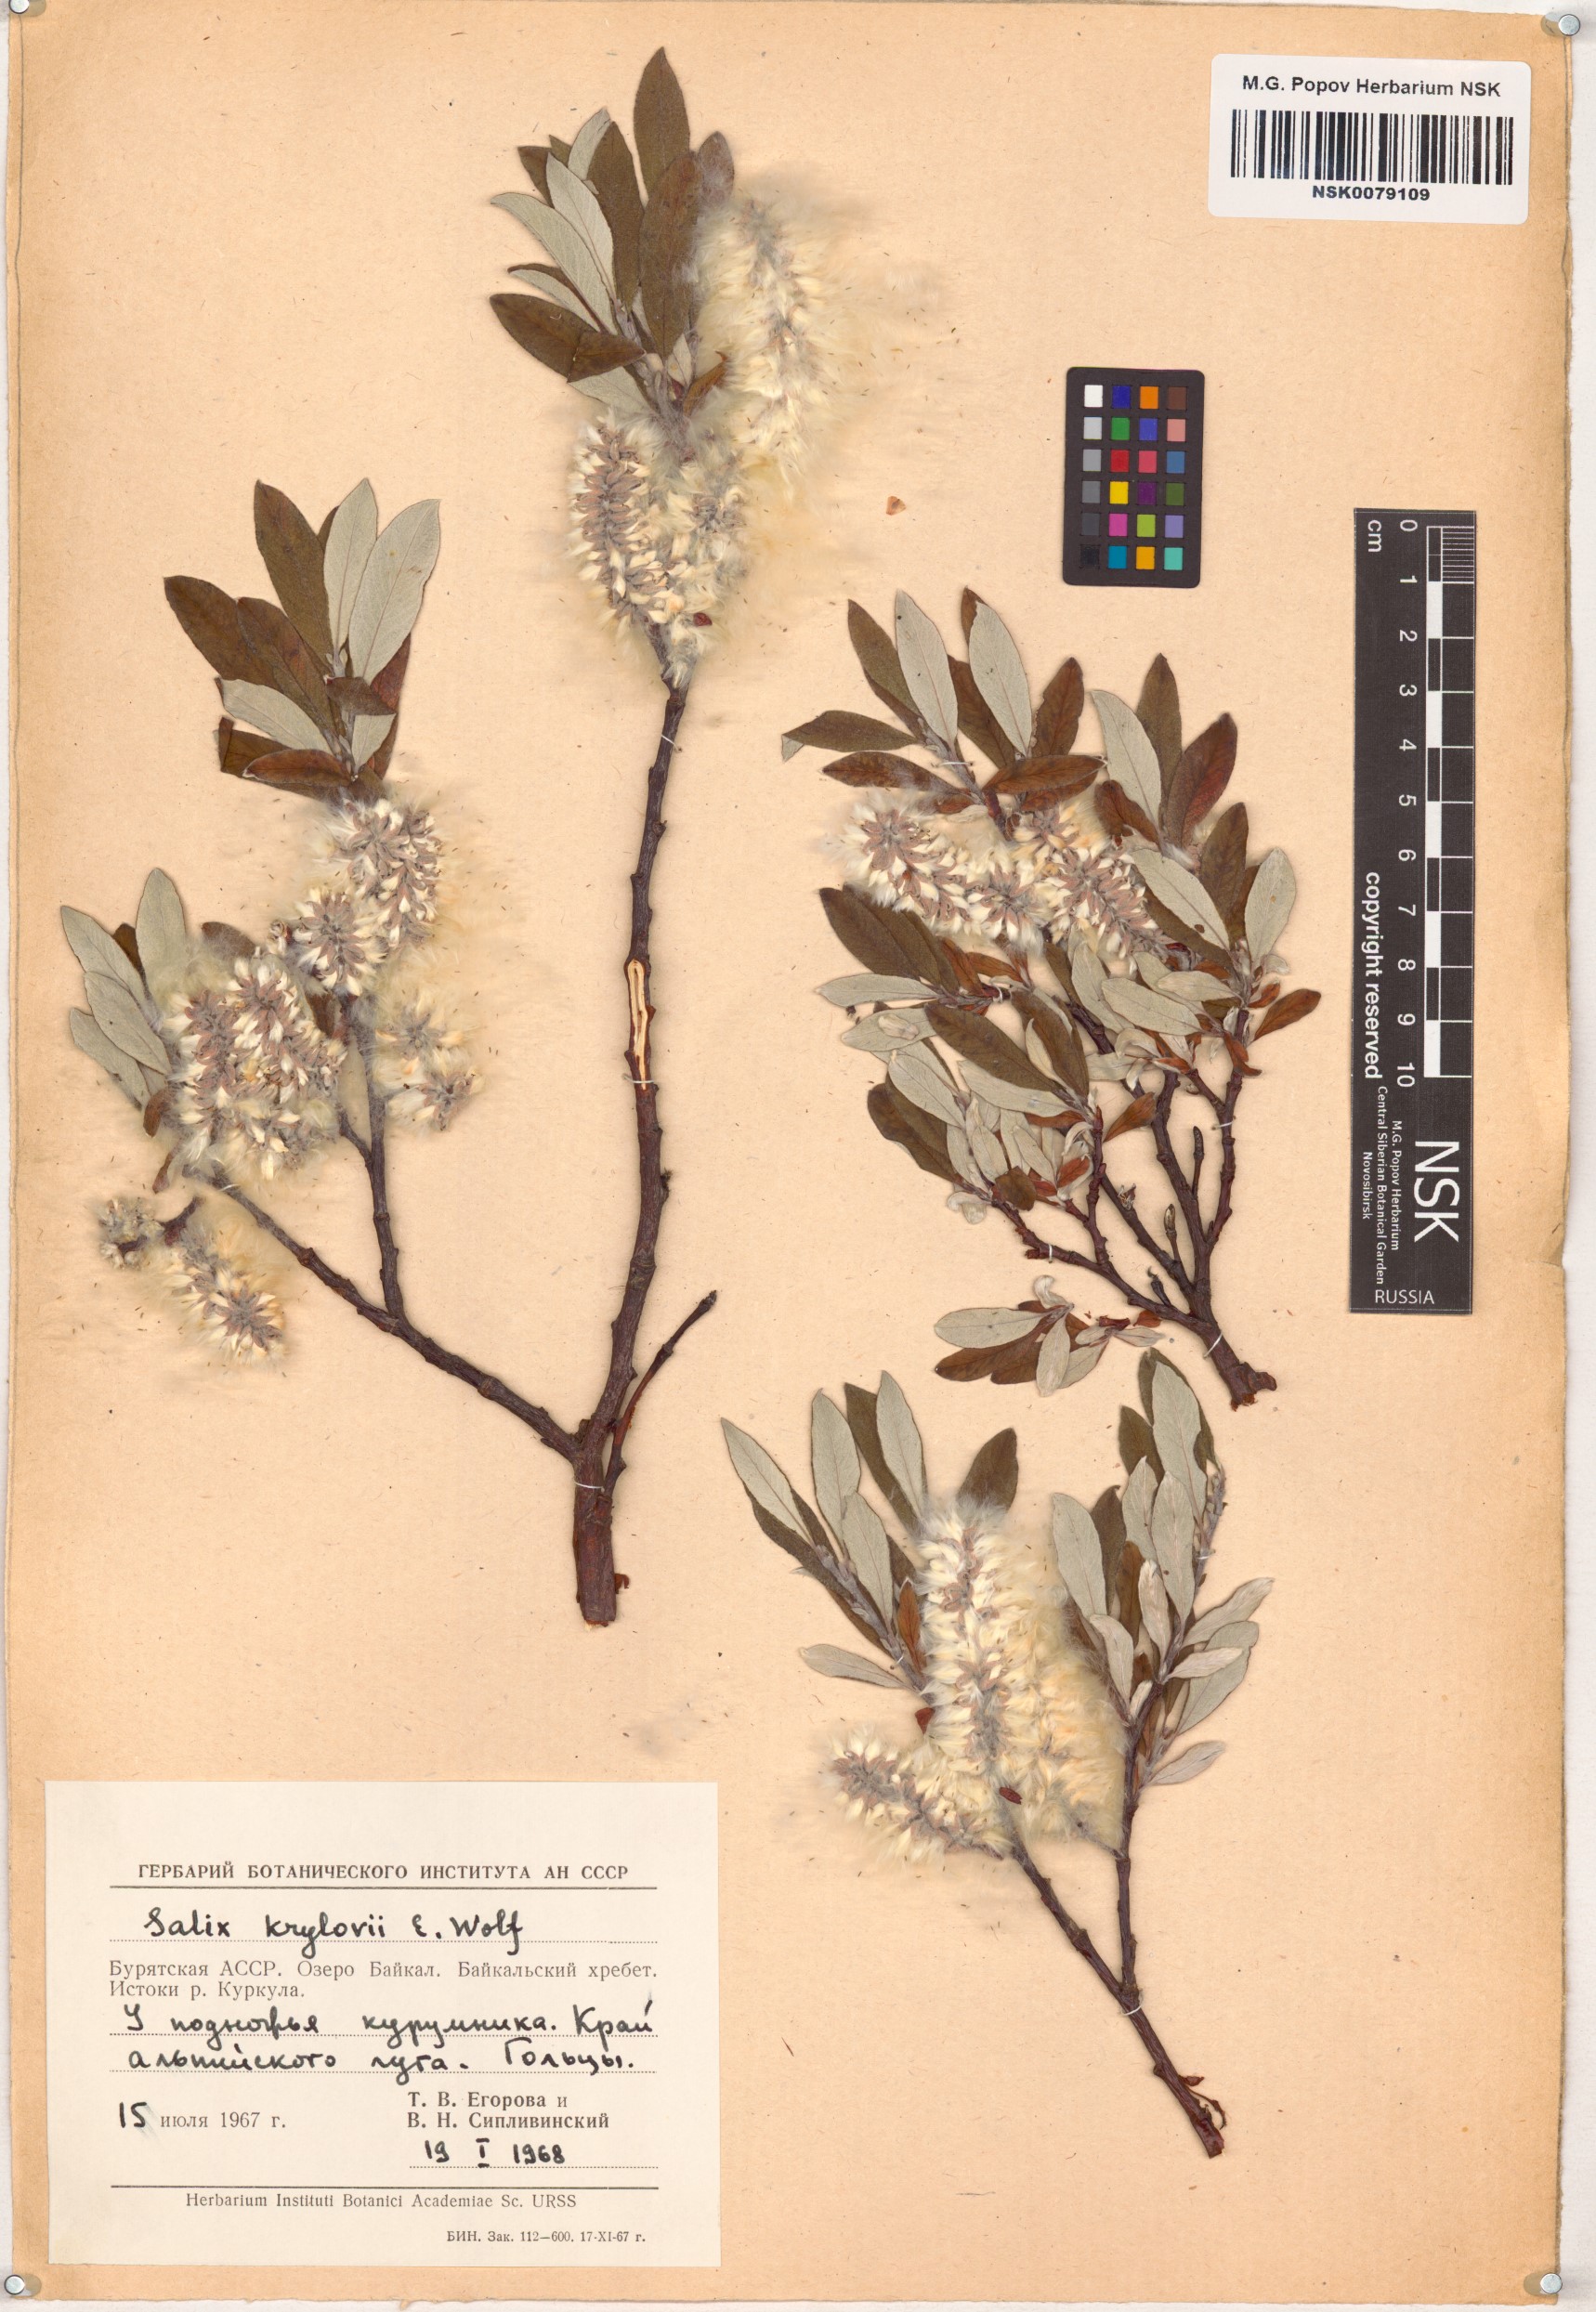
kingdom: Plantae
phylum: Tracheophyta
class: Magnoliopsida
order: Malpighiales
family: Salicaceae
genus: Salix
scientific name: Salix krylovii
